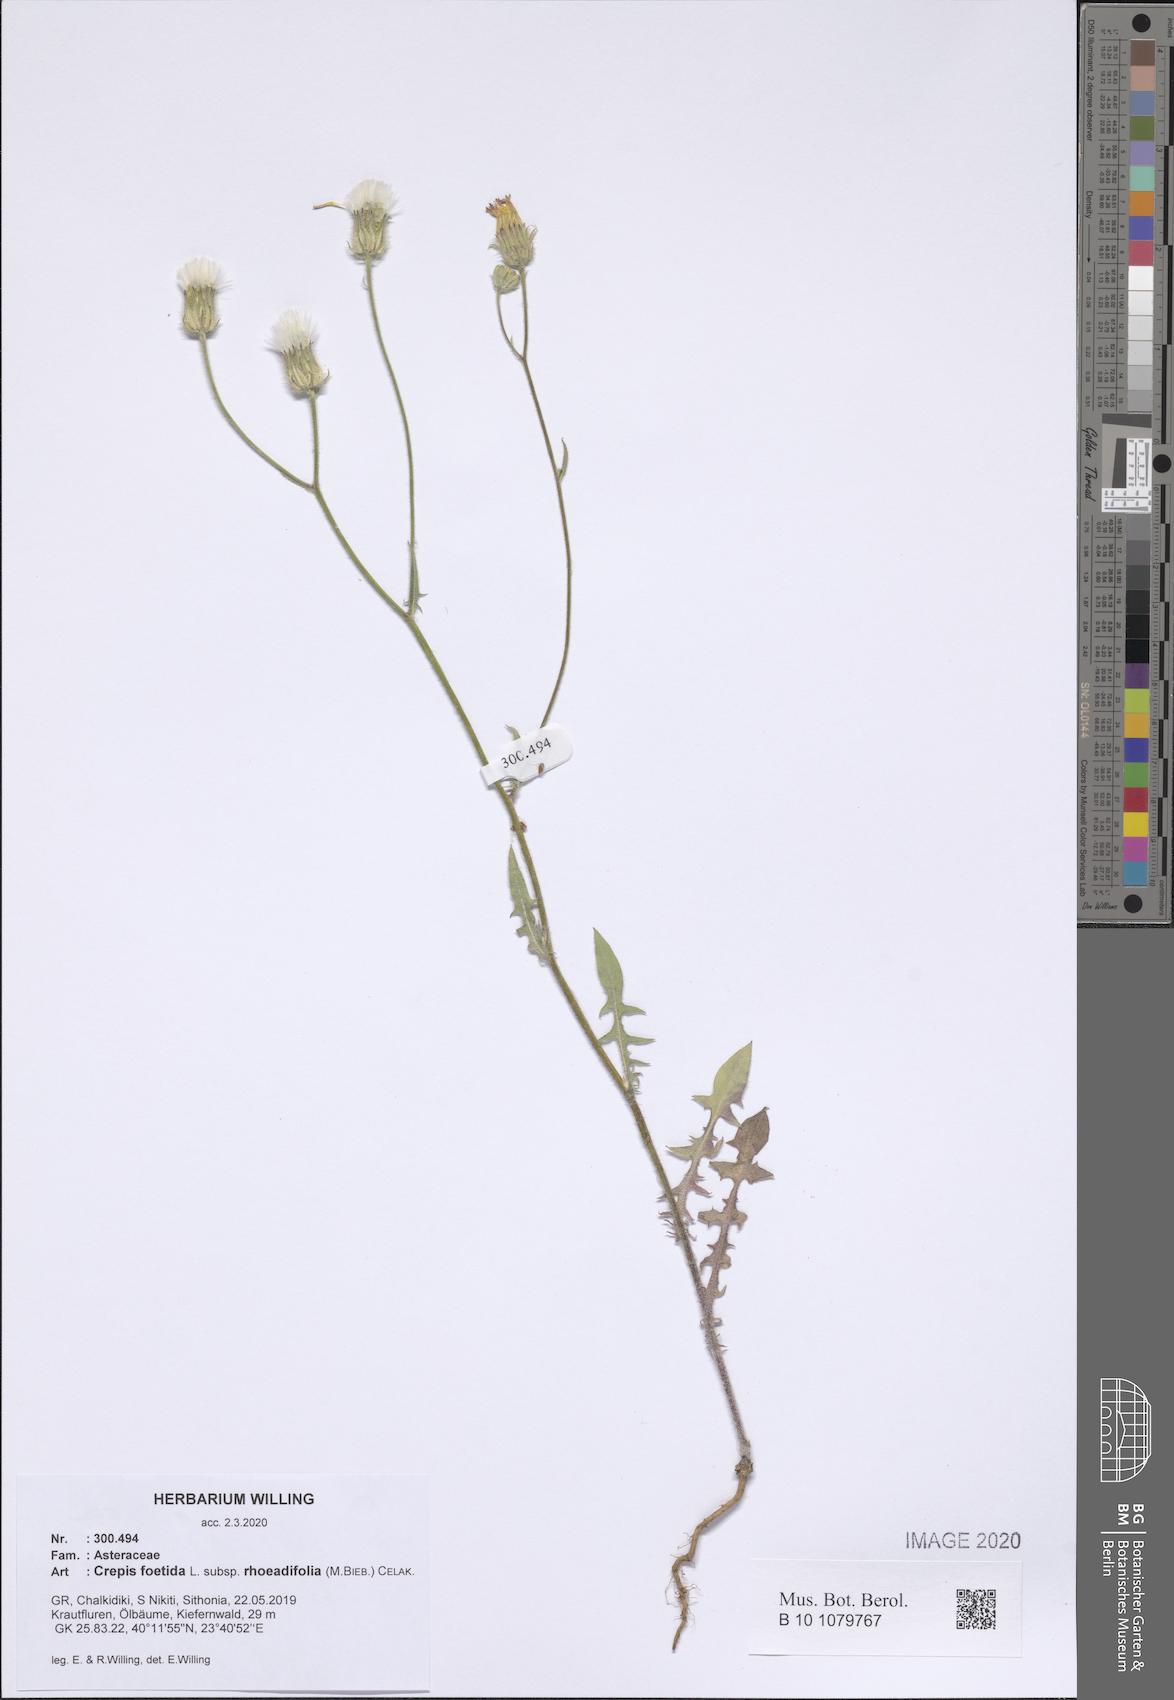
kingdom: Plantae
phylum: Tracheophyta
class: Magnoliopsida
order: Asterales
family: Asteraceae
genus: Crepis
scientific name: Crepis foetida
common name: Stinking hawk's-beard
